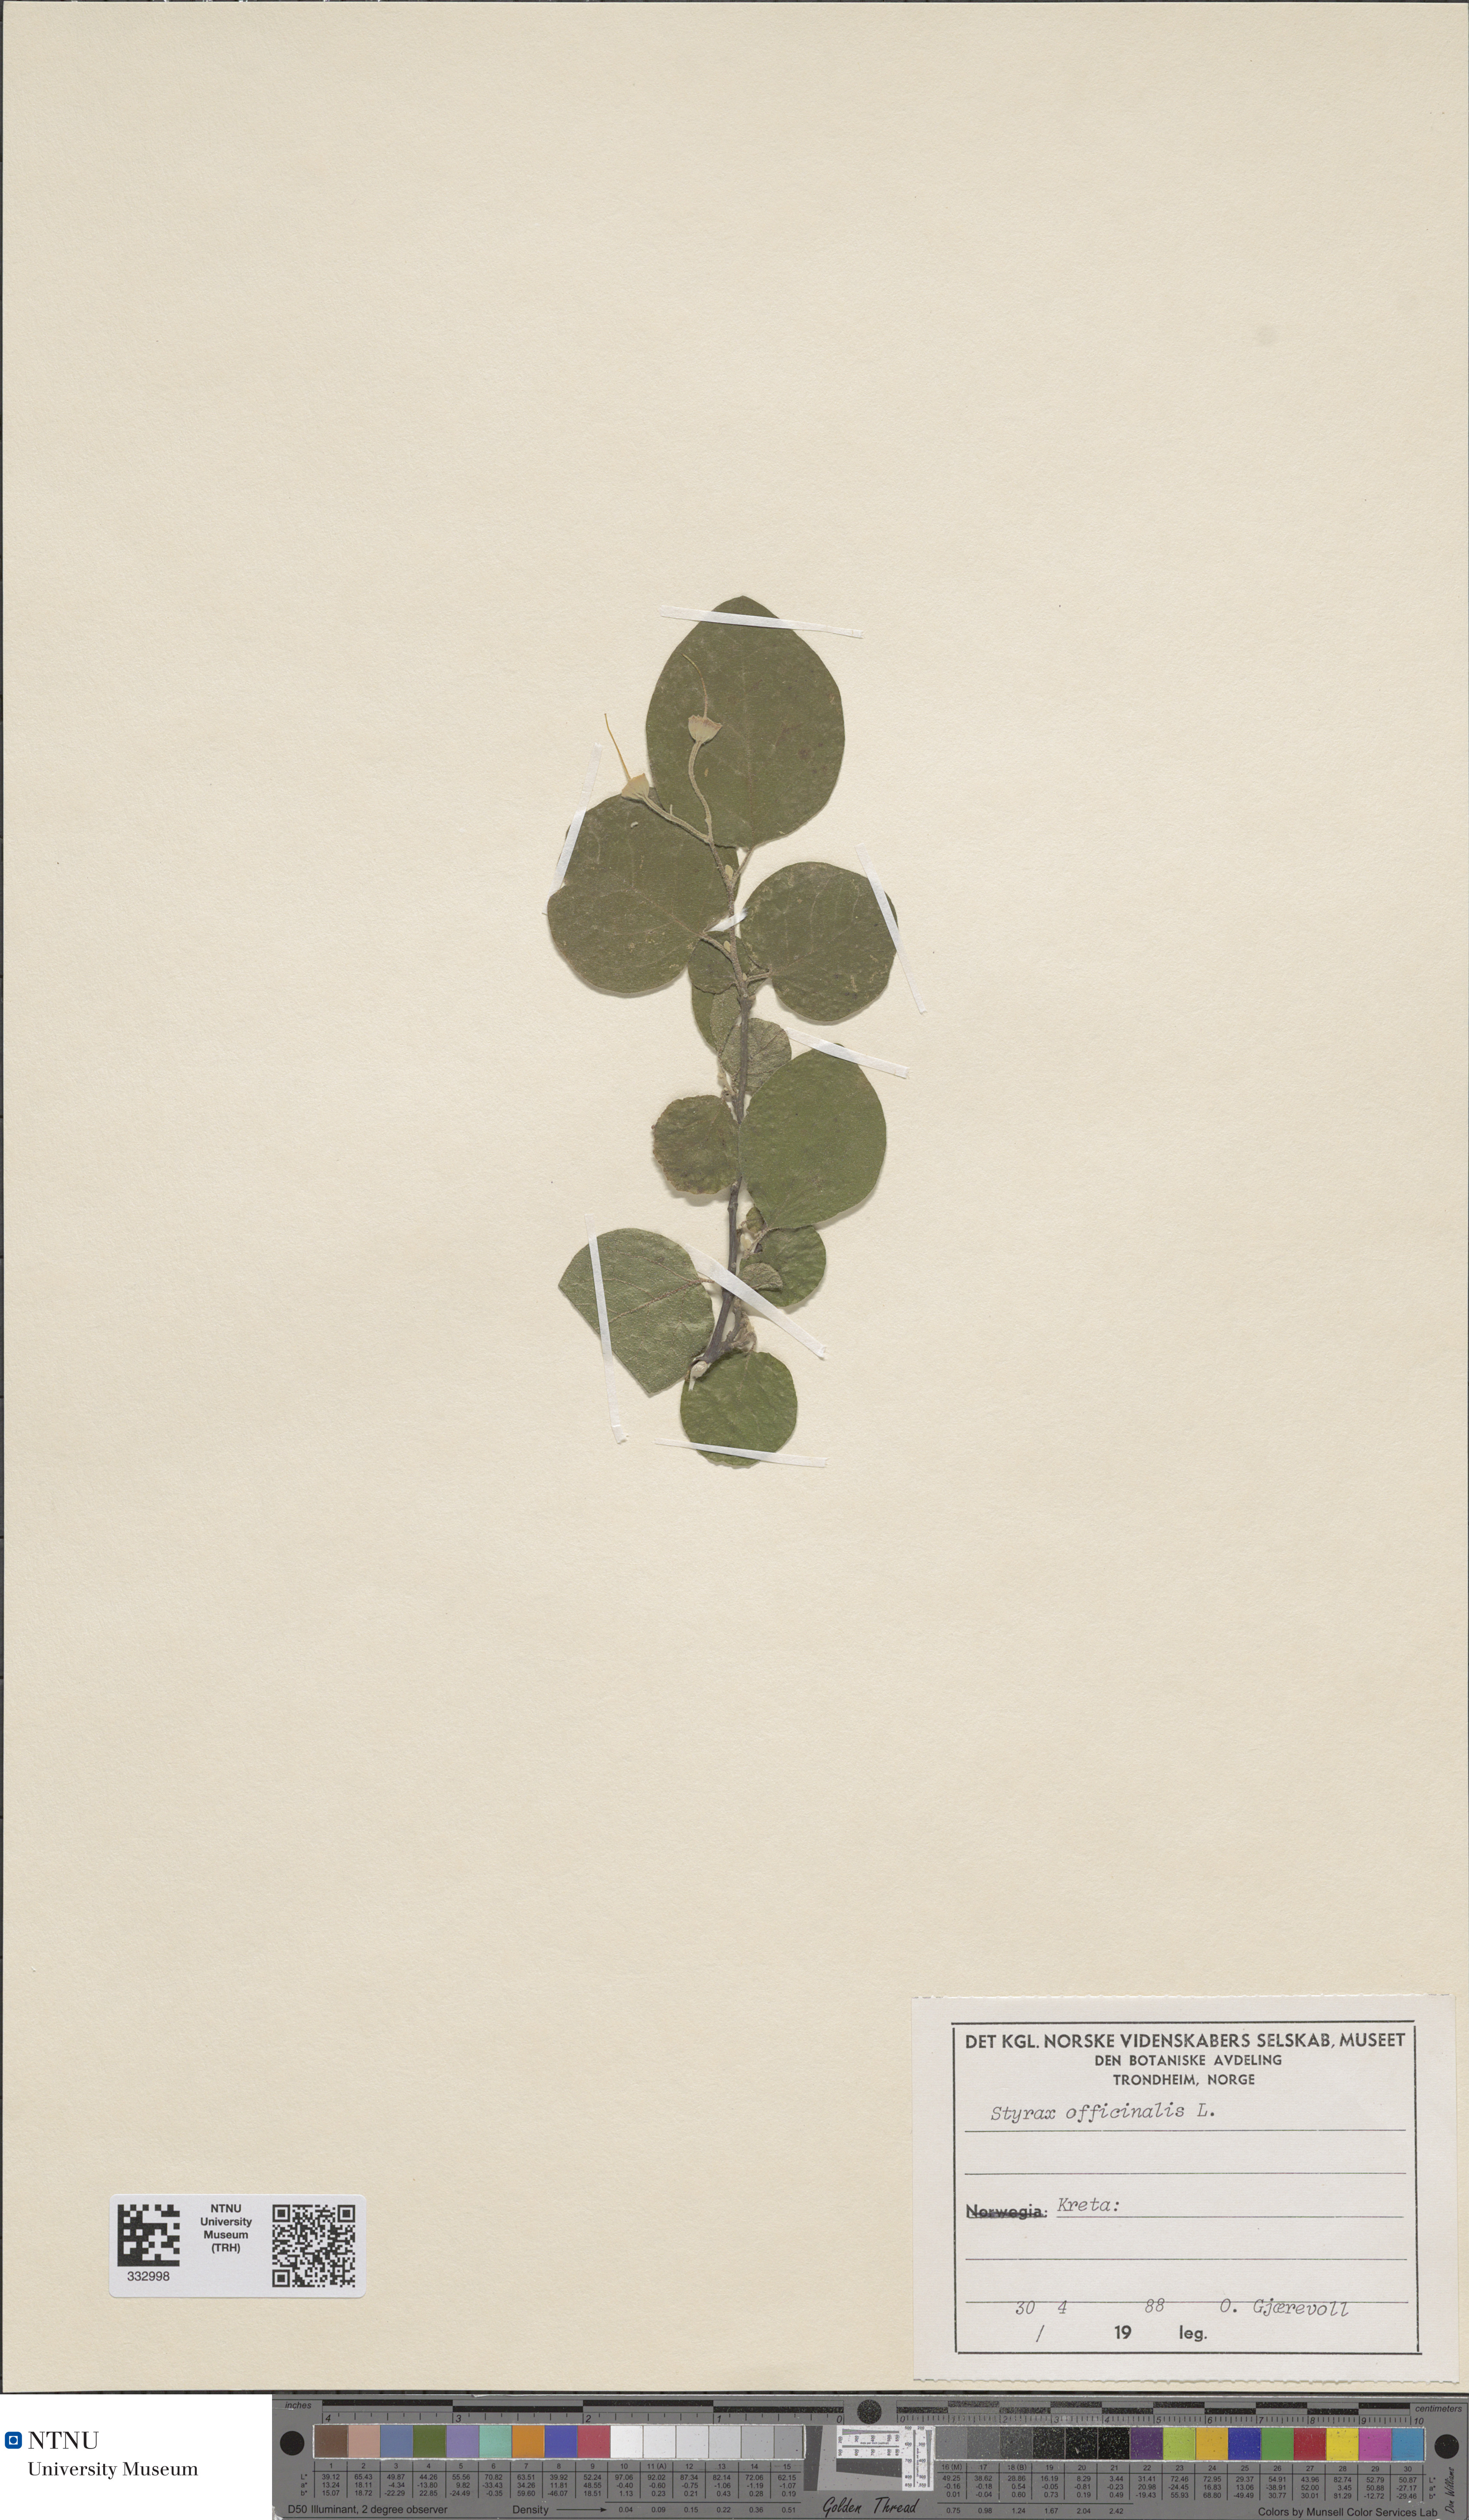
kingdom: Plantae
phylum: Tracheophyta
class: Magnoliopsida
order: Ericales
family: Styracaceae
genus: Styrax
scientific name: Styrax officinalis
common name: Storax
